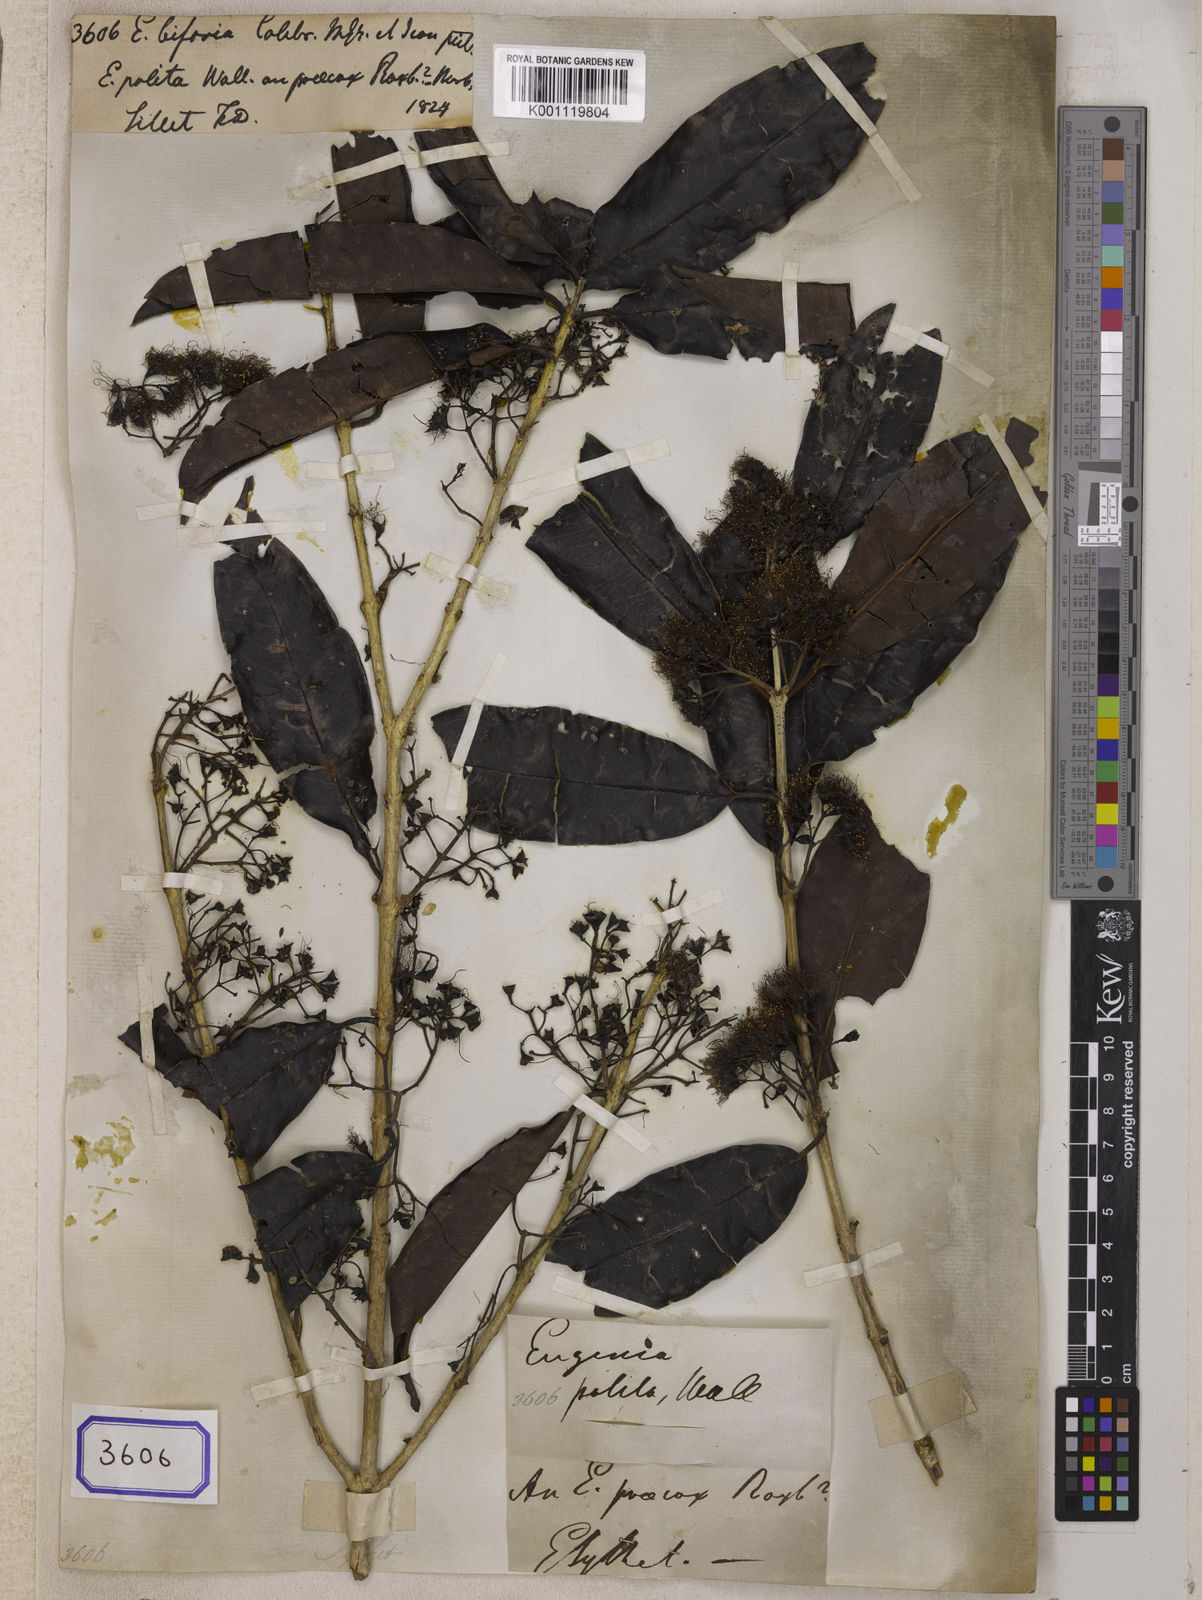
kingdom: Plantae
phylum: Tracheophyta
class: Magnoliopsida
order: Myrtales
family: Myrtaceae
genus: Eugenia
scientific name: Eugenia
